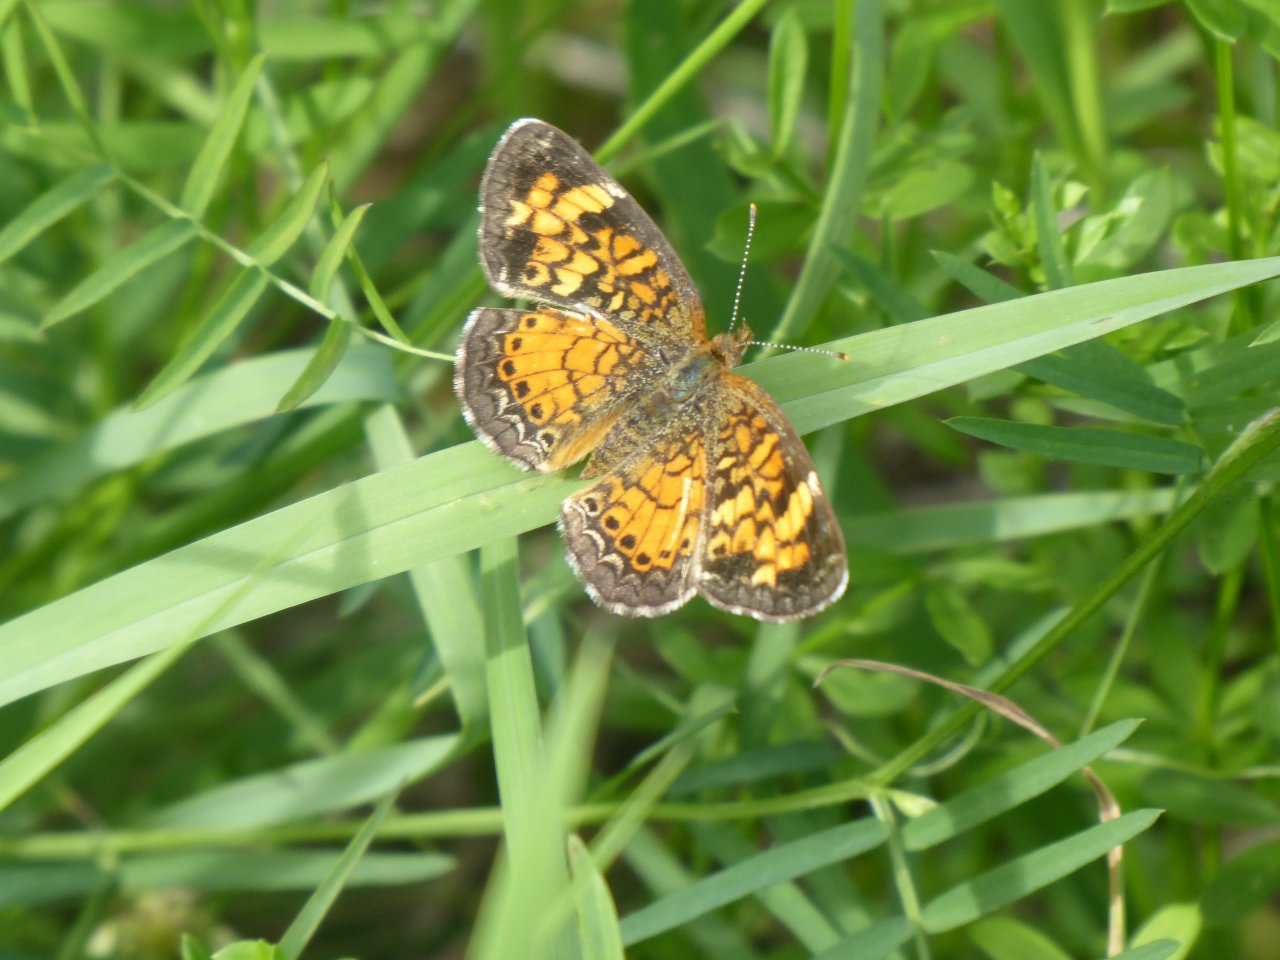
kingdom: Animalia
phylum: Arthropoda
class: Insecta
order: Lepidoptera
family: Nymphalidae
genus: Phyciodes
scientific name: Phyciodes tharos
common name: Pearl Crescent
